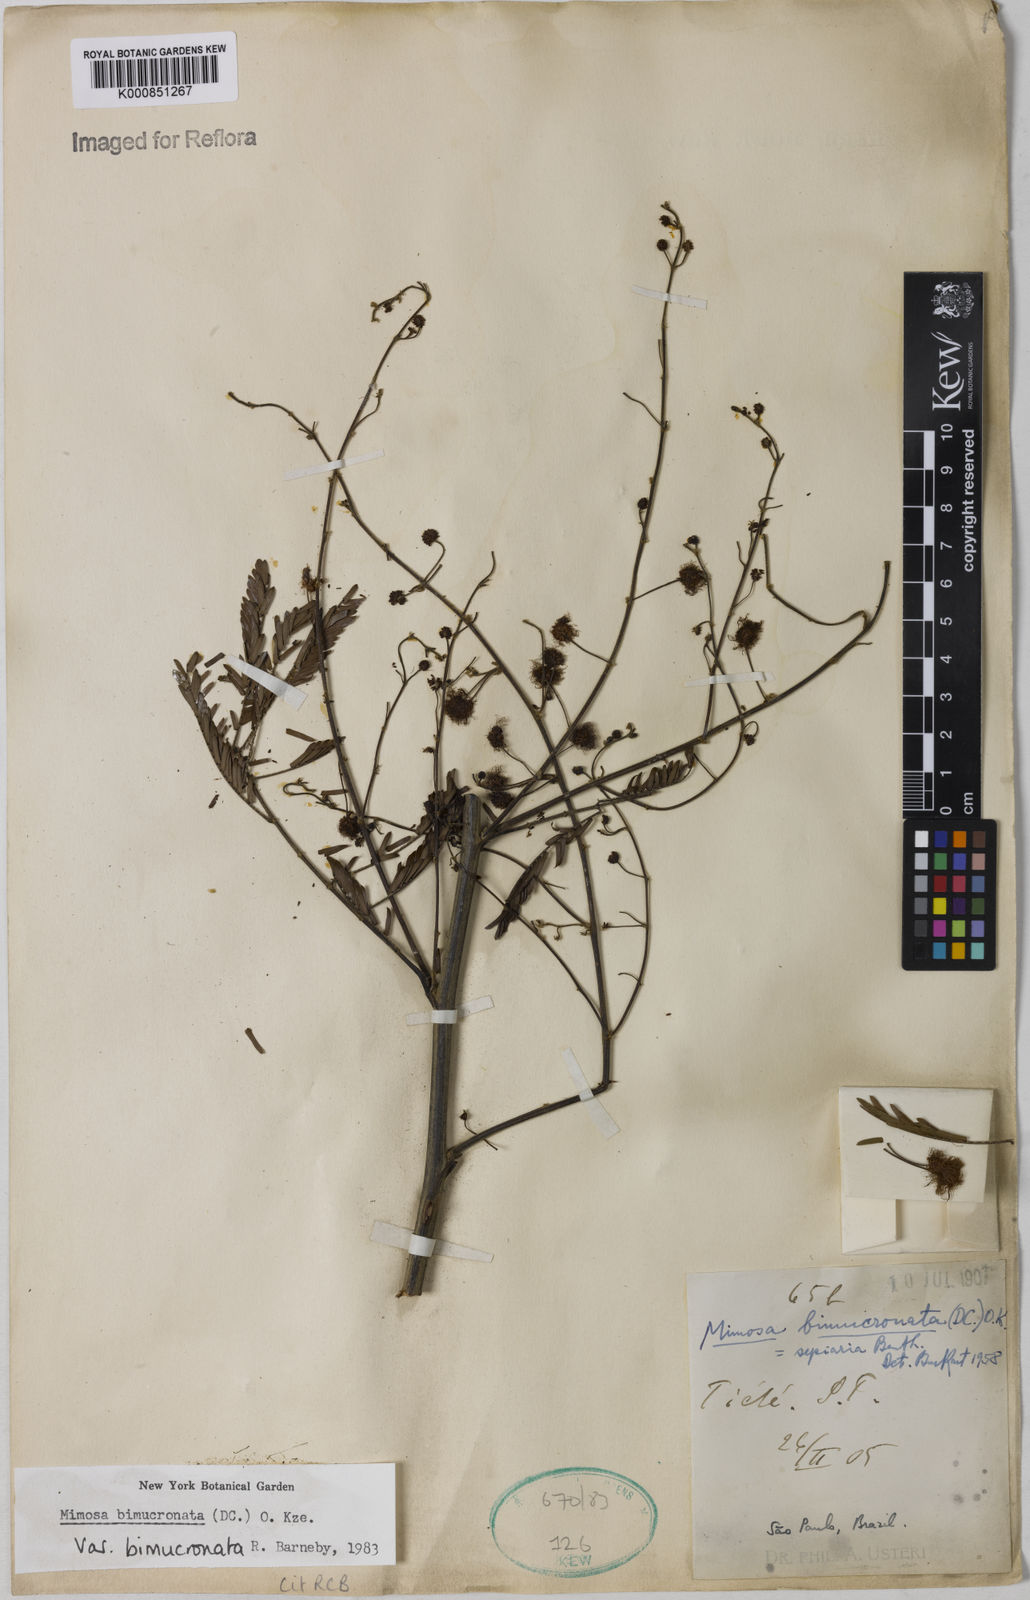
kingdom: Plantae
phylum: Tracheophyta
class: Magnoliopsida
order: Fabales
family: Fabaceae
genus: Mimosa
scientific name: Mimosa bimucronata
